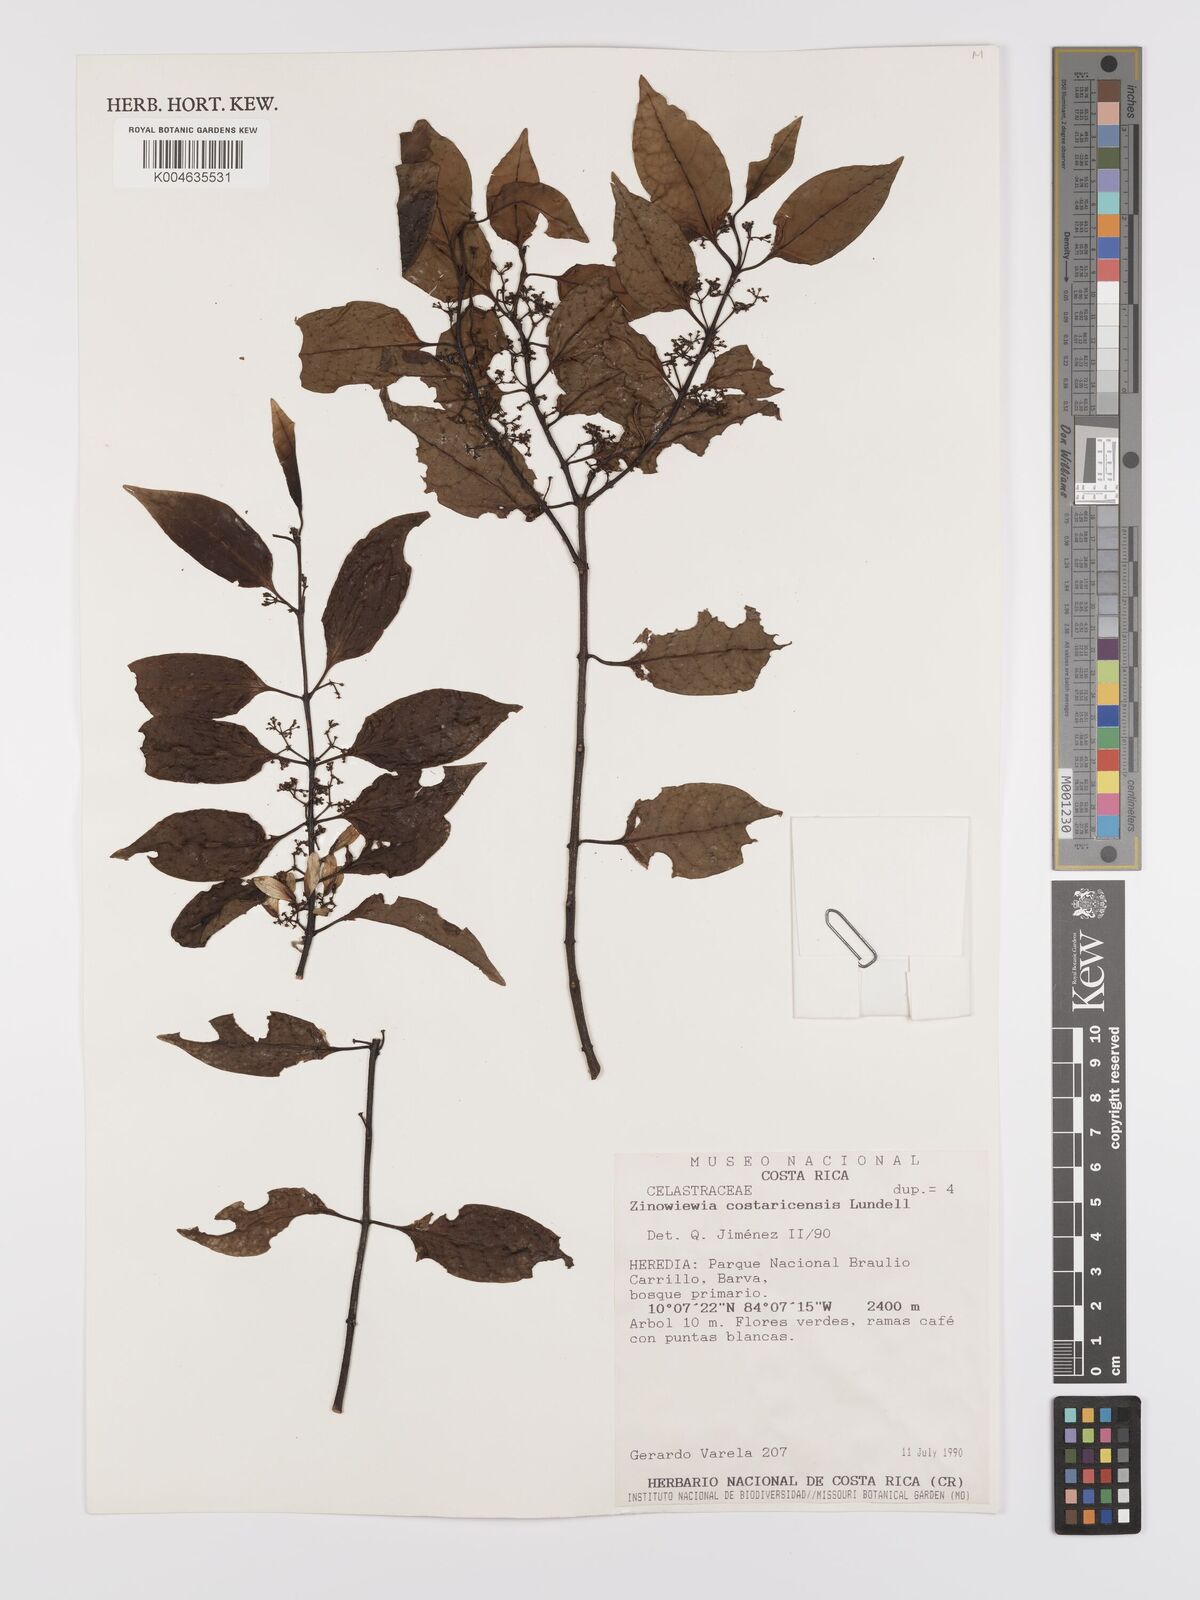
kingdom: Plantae
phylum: Tracheophyta
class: Magnoliopsida
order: Celastrales
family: Celastraceae
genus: Zinowiewia
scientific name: Zinowiewia integerrima
